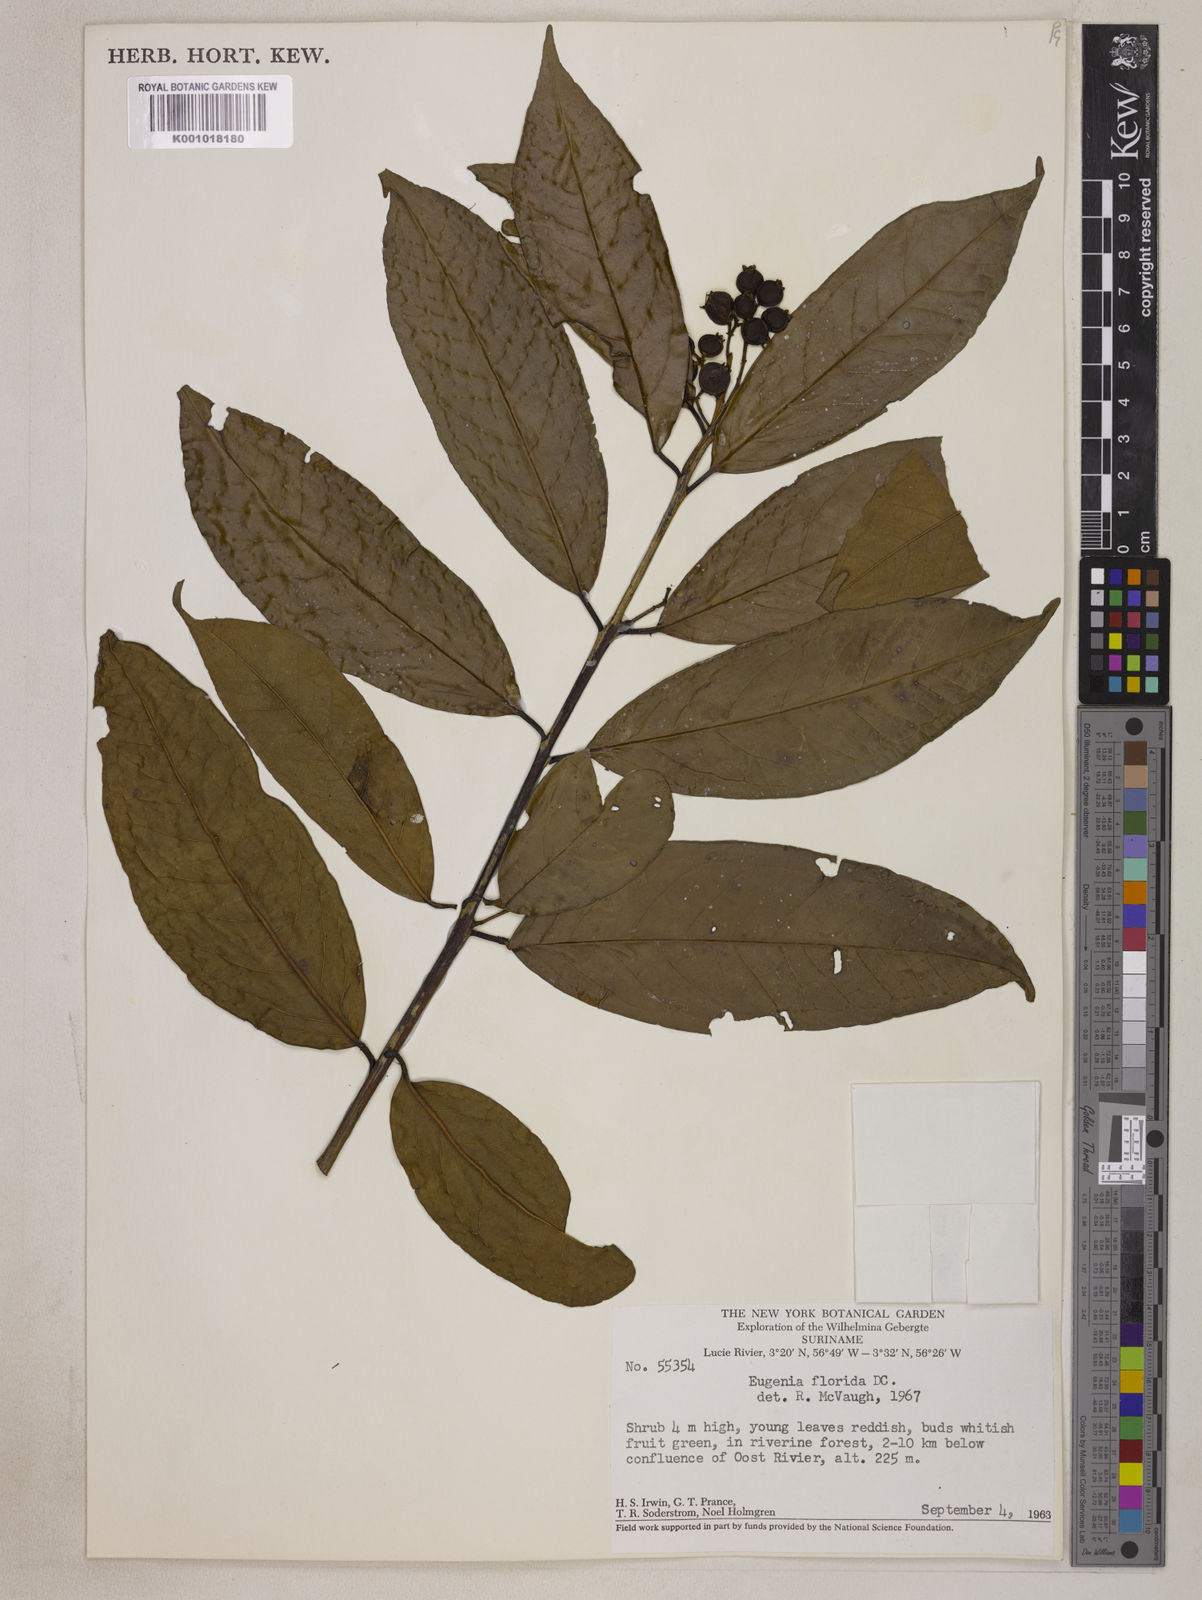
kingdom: Plantae
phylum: Tracheophyta
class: Magnoliopsida
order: Myrtales
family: Myrtaceae
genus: Eugenia
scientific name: Eugenia florida
